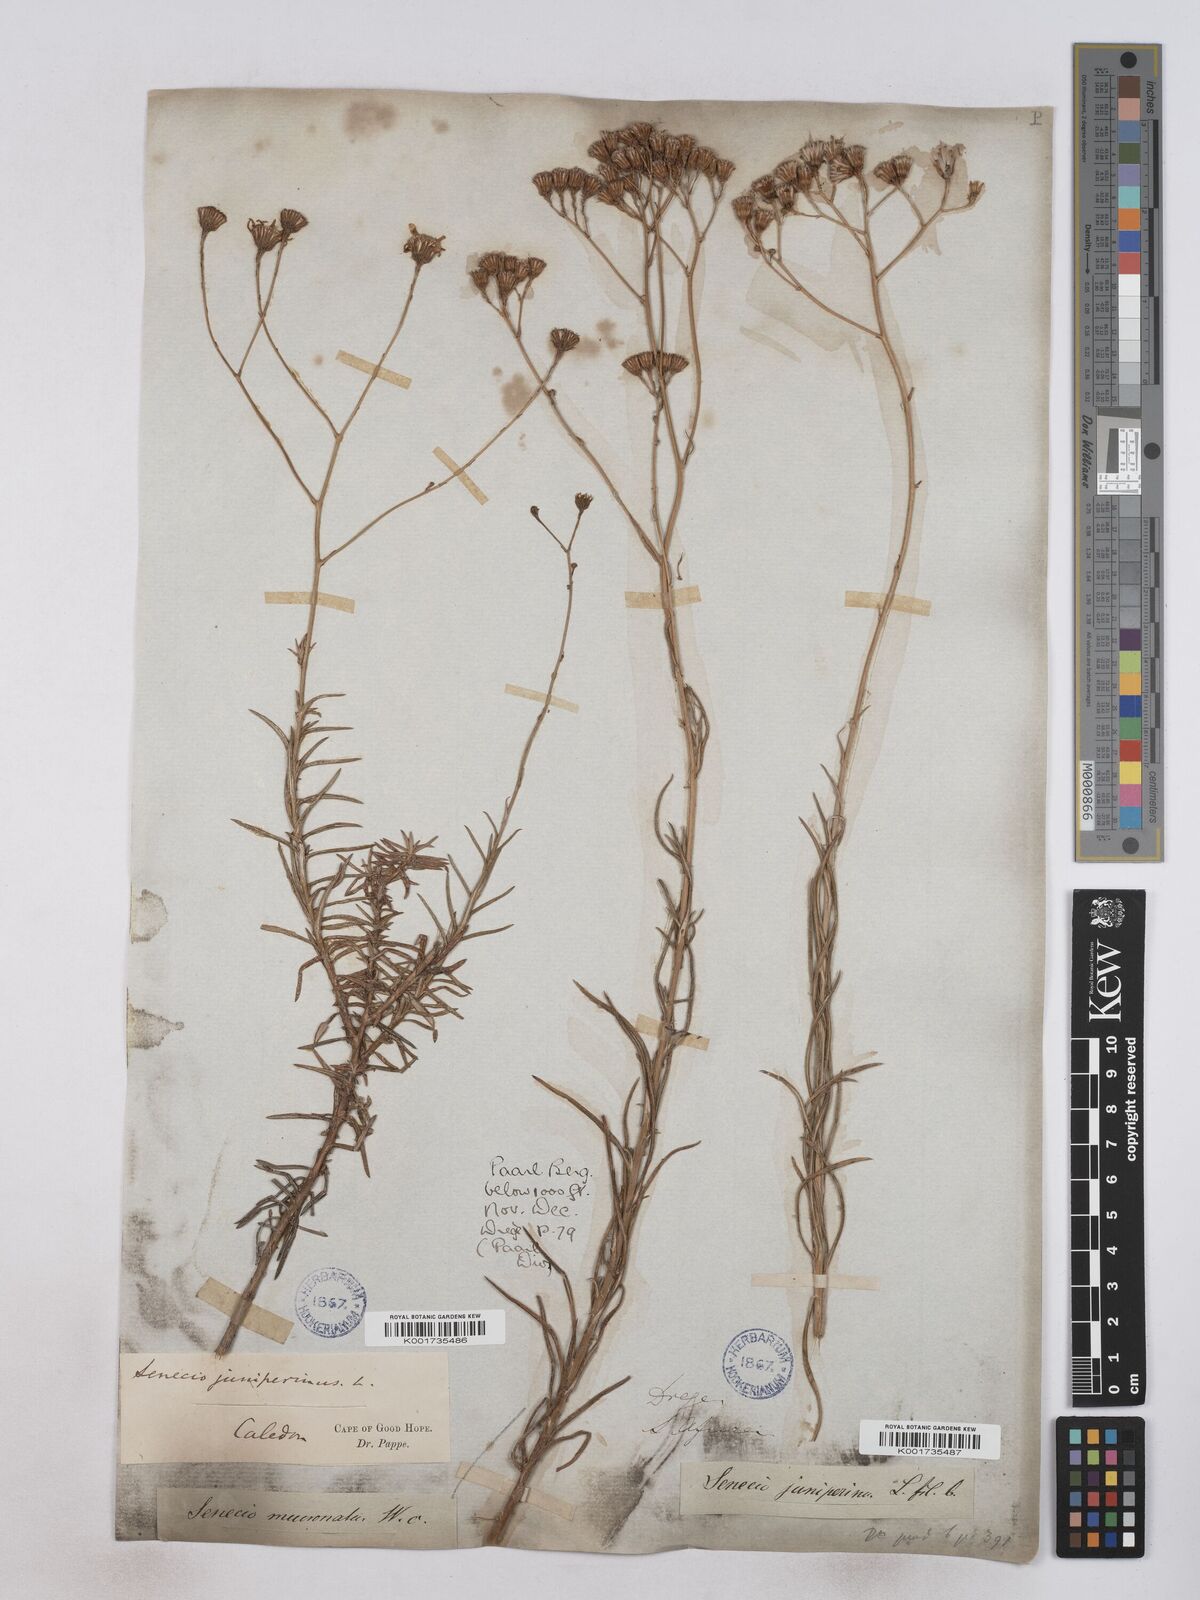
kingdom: Plantae
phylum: Tracheophyta
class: Magnoliopsida
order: Asterales
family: Asteraceae
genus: Senecio
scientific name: Senecio juniperinus
